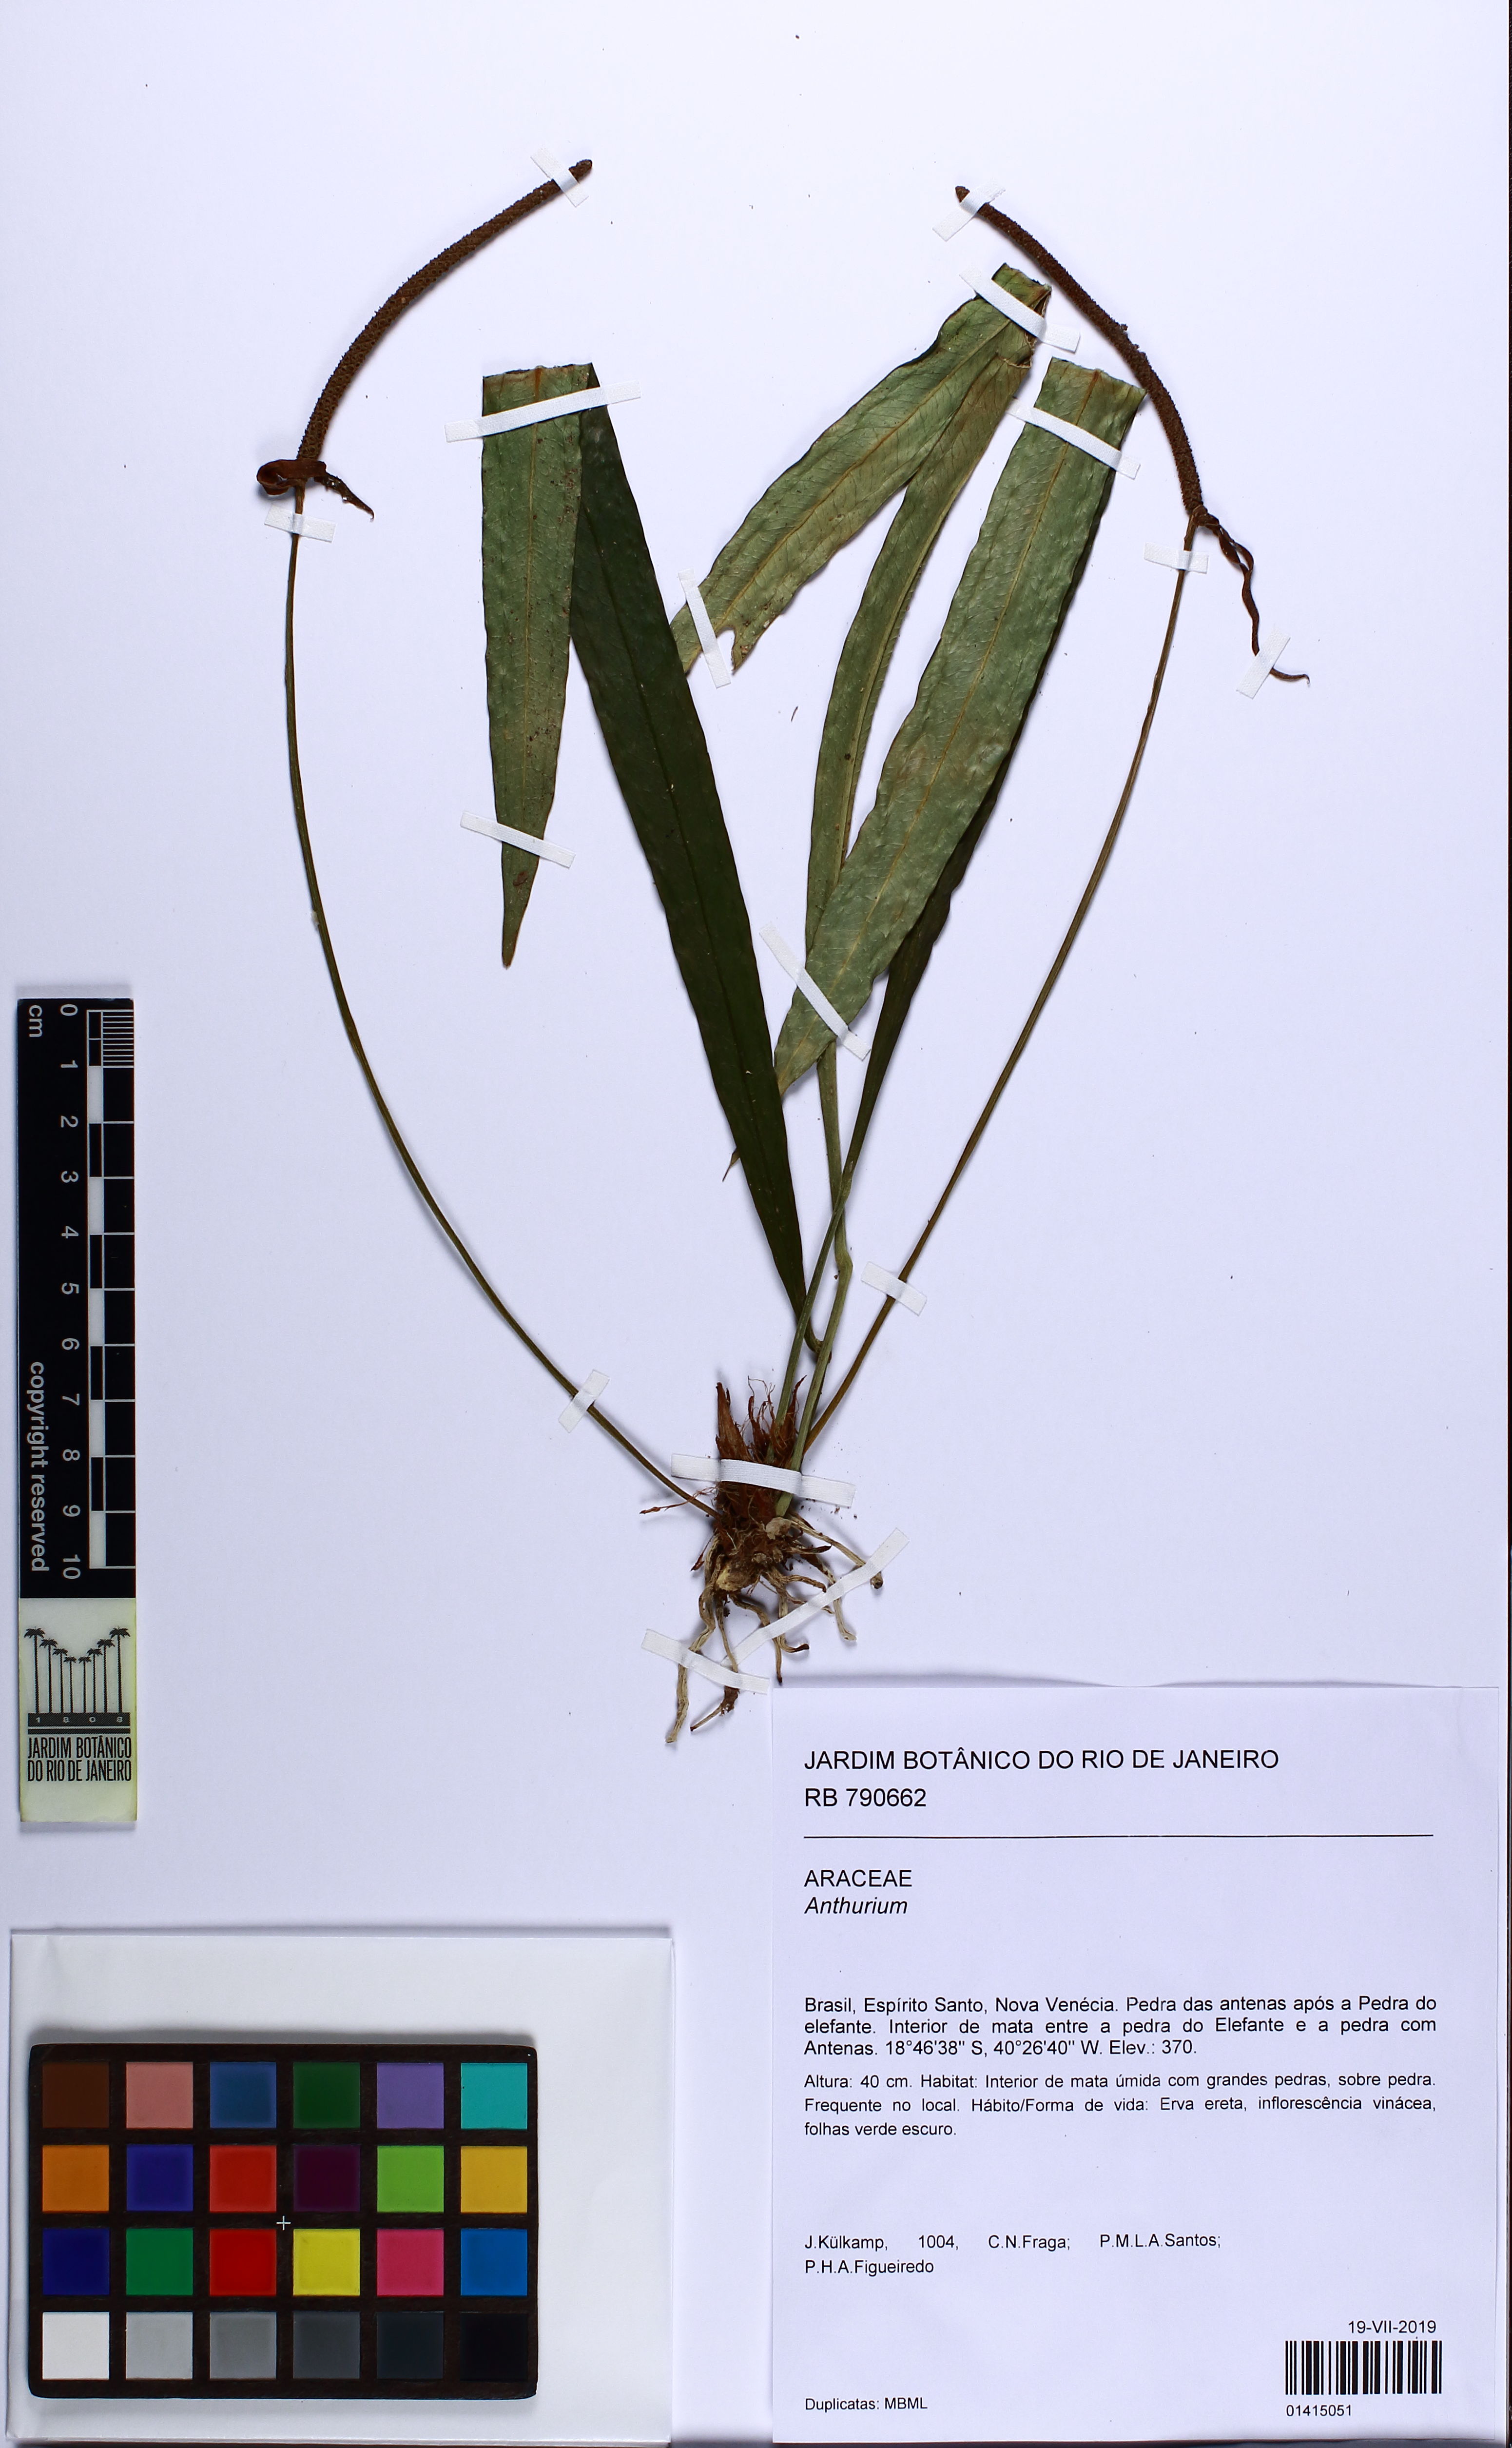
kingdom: Plantae
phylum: Tracheophyta
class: Liliopsida
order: Alismatales
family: Araceae
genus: Anthurium
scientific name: Anthurium
